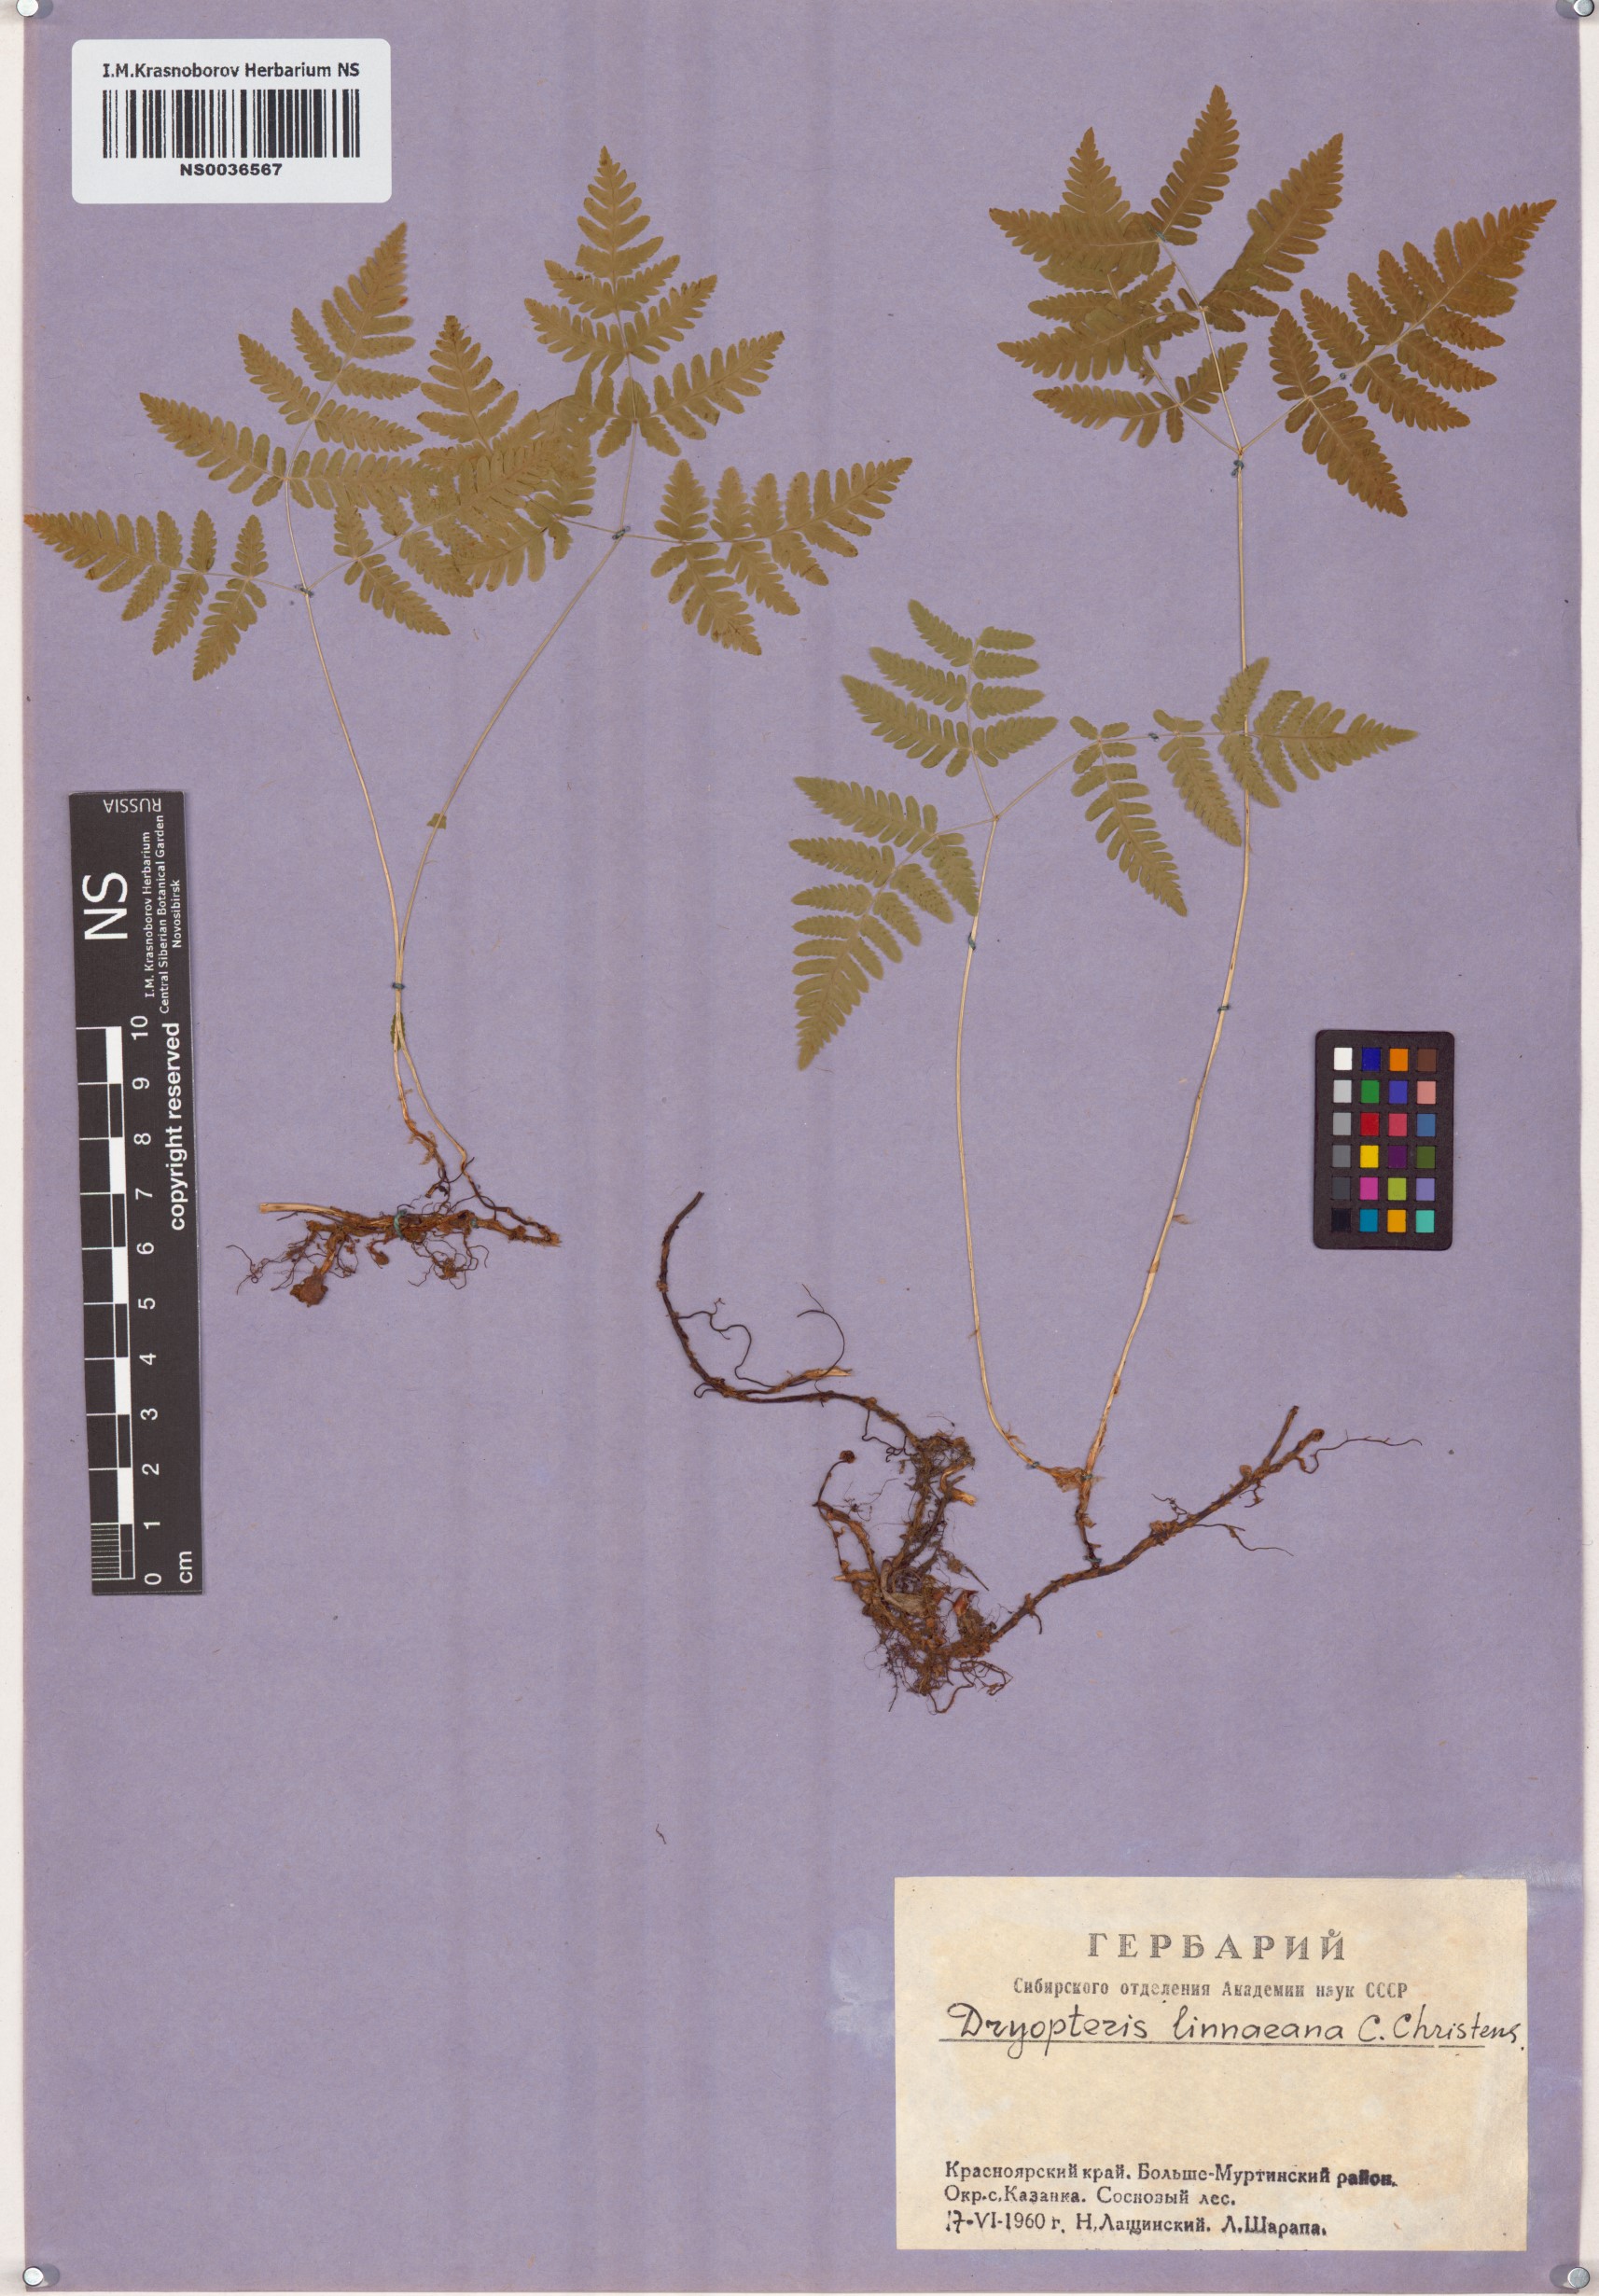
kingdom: Plantae
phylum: Tracheophyta
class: Polypodiopsida
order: Polypodiales
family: Cystopteridaceae
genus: Gymnocarpium
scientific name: Gymnocarpium dryopteris
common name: Oak fern
